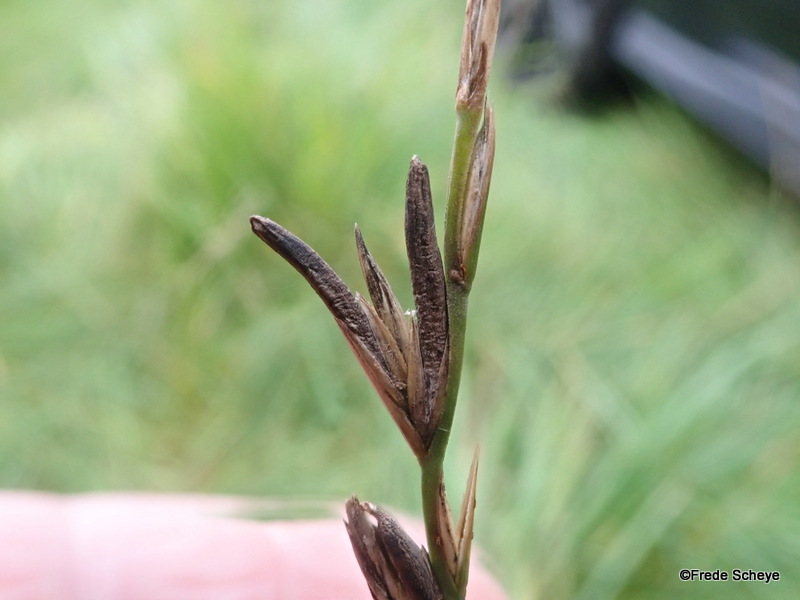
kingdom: Fungi
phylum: Ascomycota
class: Sordariomycetes
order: Hypocreales
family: Clavicipitaceae
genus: Claviceps
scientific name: Claviceps purpurea
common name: almindelig meldrøjer
